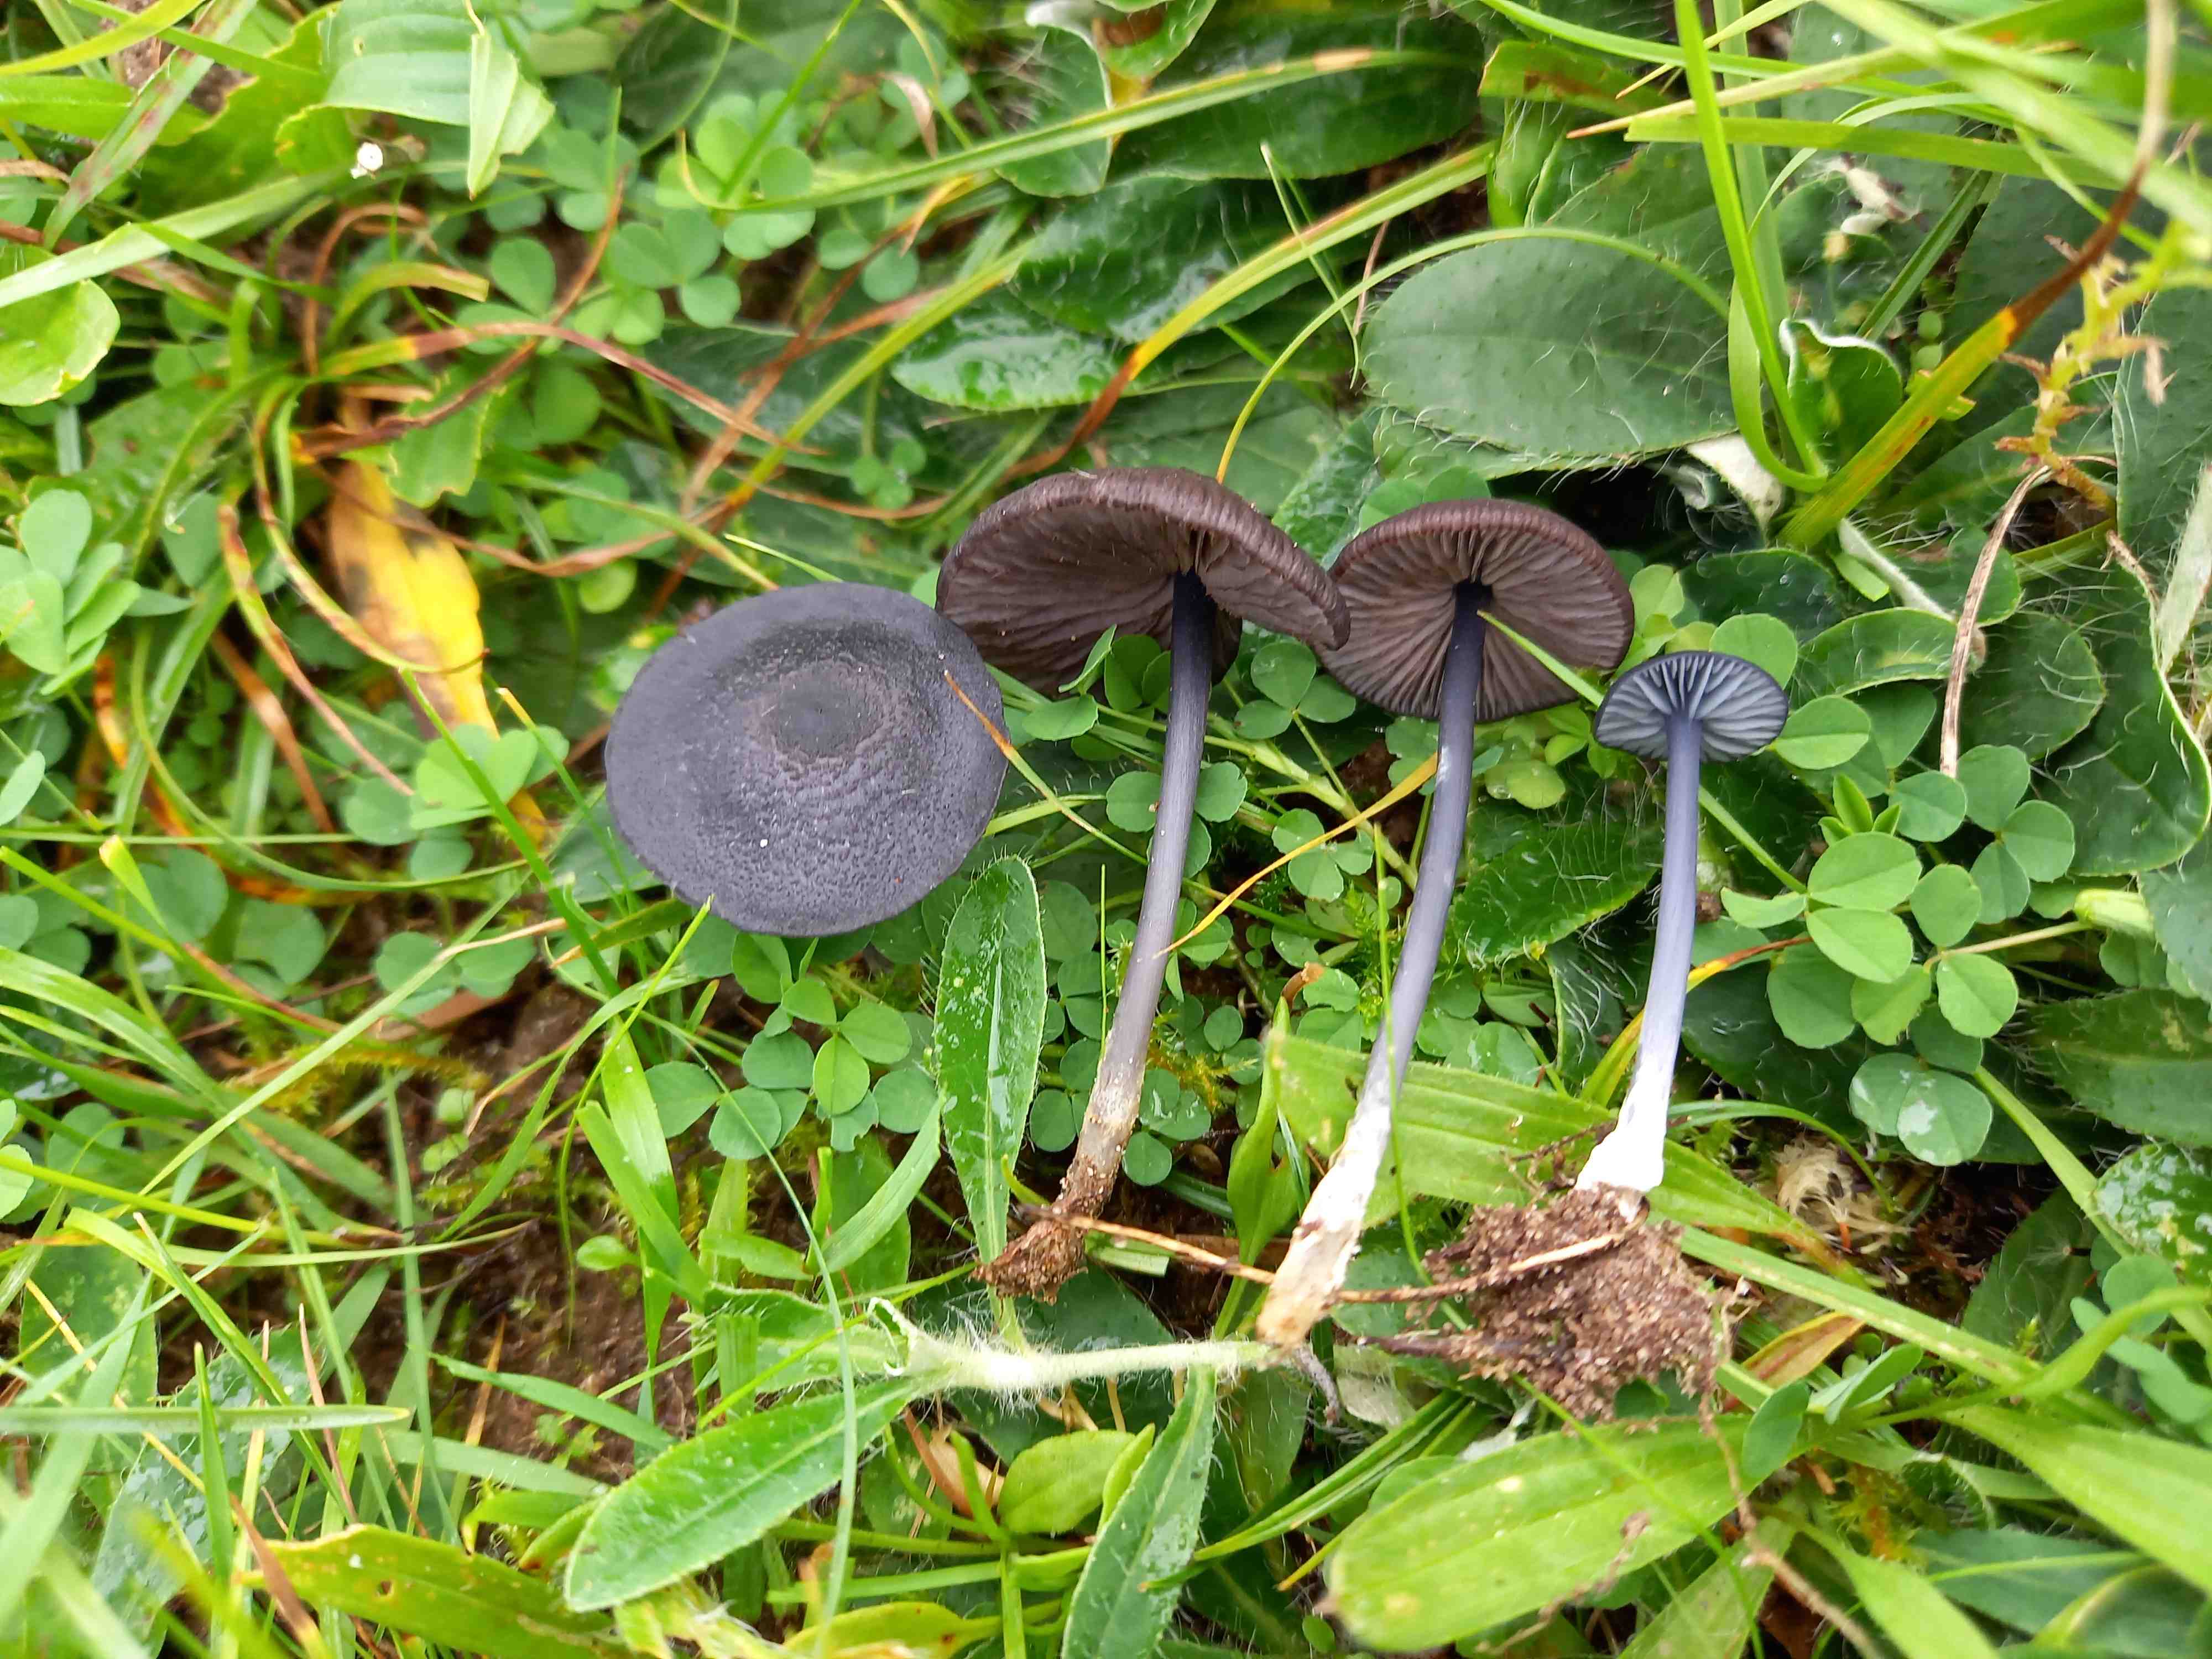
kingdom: Fungi
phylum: Basidiomycota
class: Agaricomycetes
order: Agaricales
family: Entolomataceae
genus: Entoloma
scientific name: Entoloma
